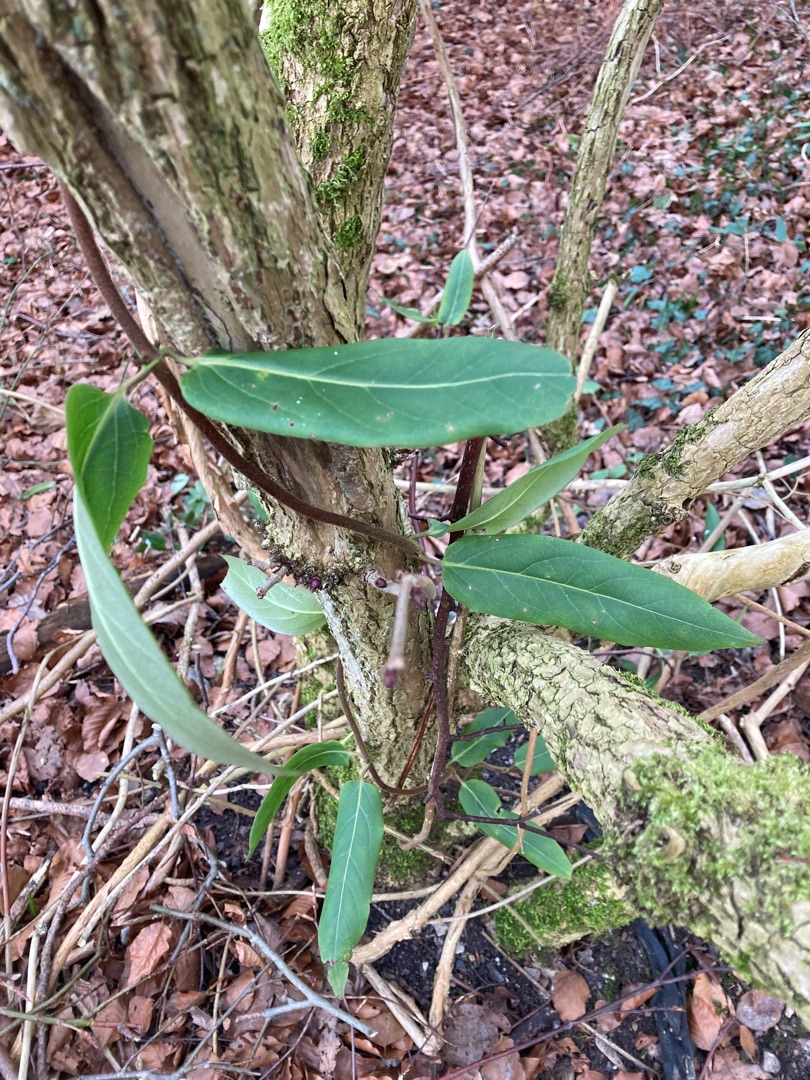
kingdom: Plantae
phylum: Tracheophyta
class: Magnoliopsida
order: Dipsacales
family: Caprifoliaceae
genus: Lonicera
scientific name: Lonicera acuminata
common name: Henrys gedeblad
